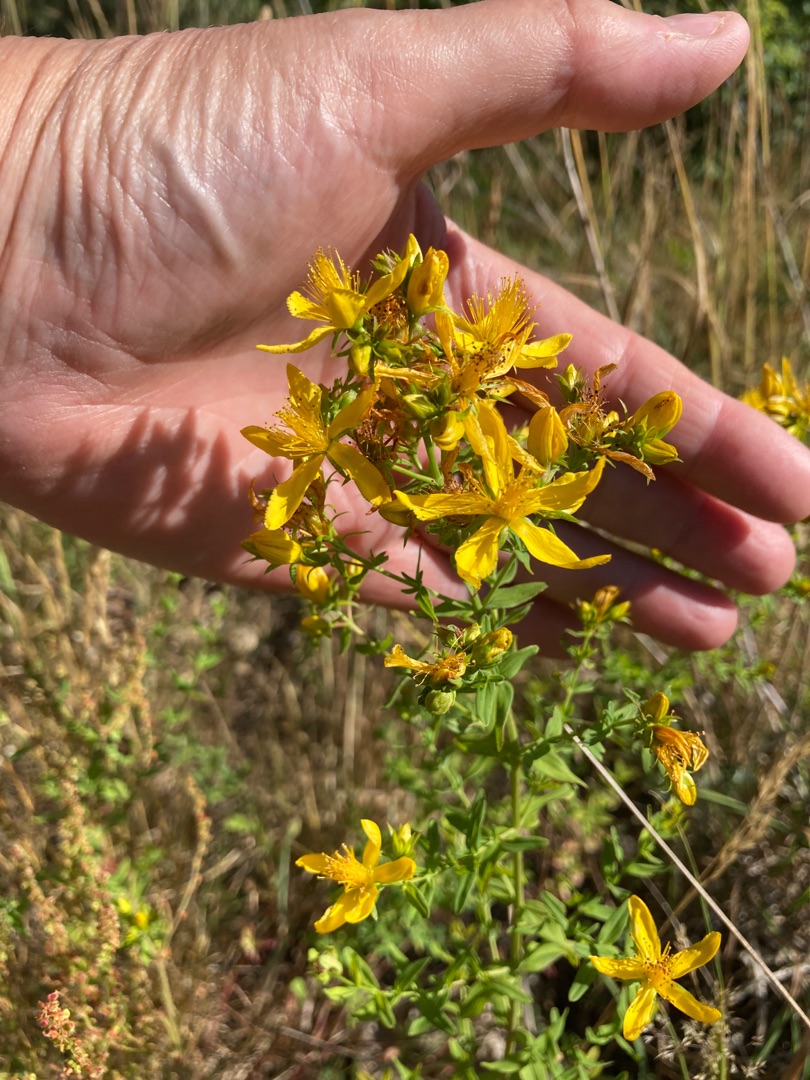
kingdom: Plantae
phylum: Tracheophyta
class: Magnoliopsida
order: Malpighiales
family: Hypericaceae
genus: Hypericum
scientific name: Hypericum perforatum
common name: Prikbladet perikon
